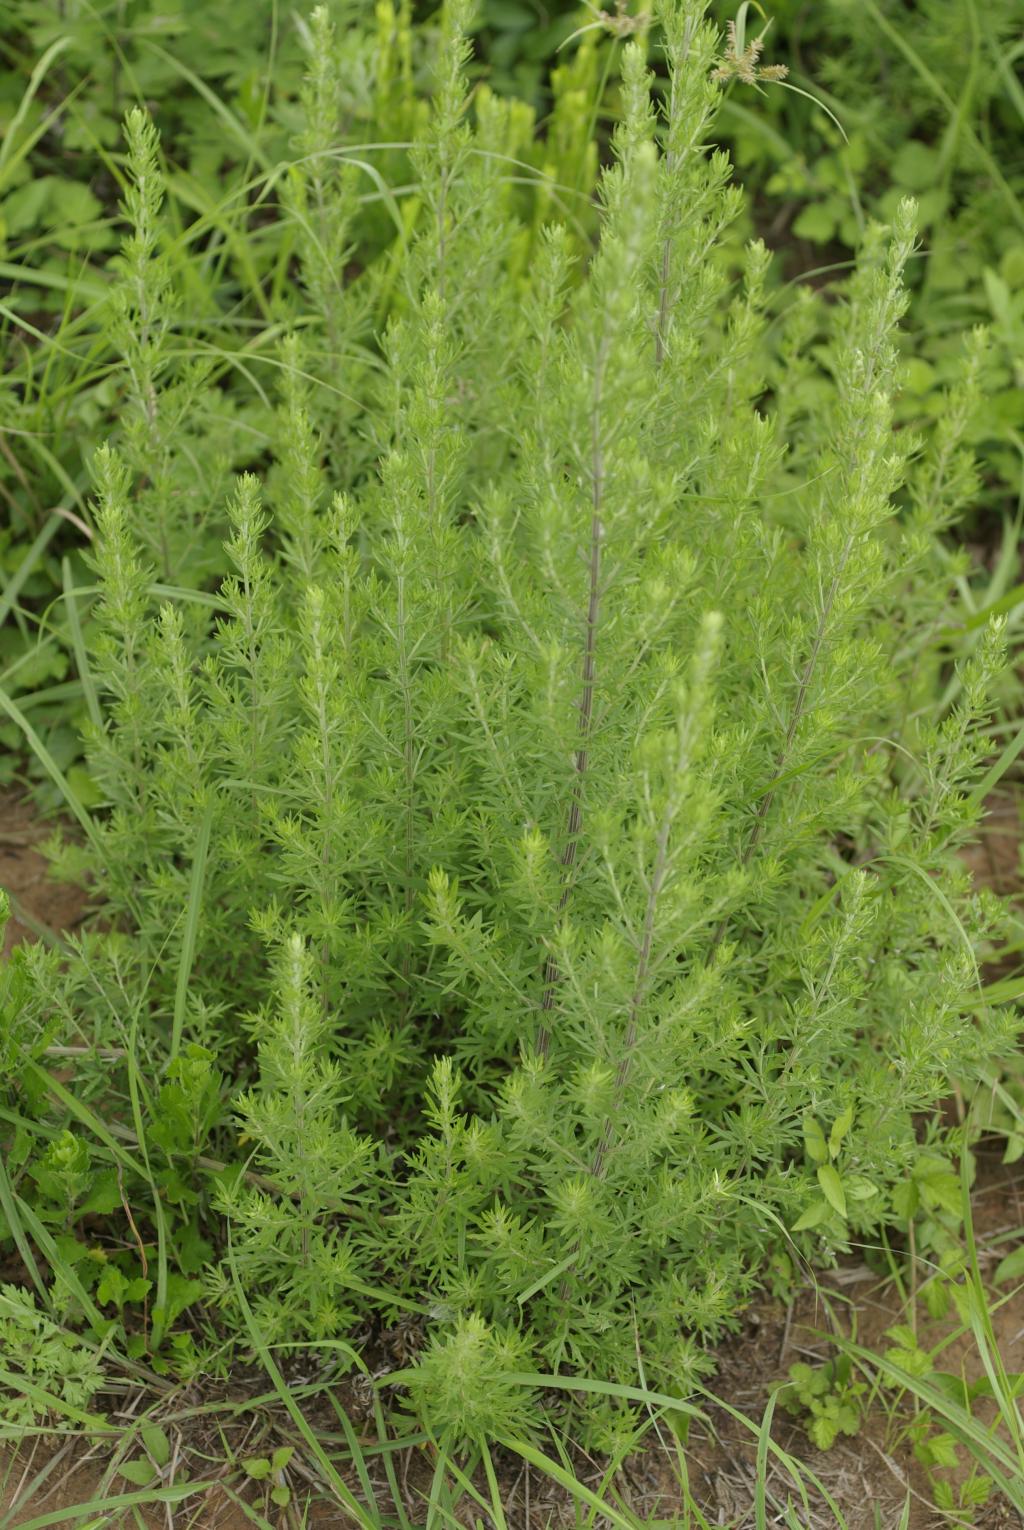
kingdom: Plantae
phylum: Tracheophyta
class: Magnoliopsida
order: Asterales
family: Asteraceae
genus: Artemisia
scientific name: Artemisia lancea
